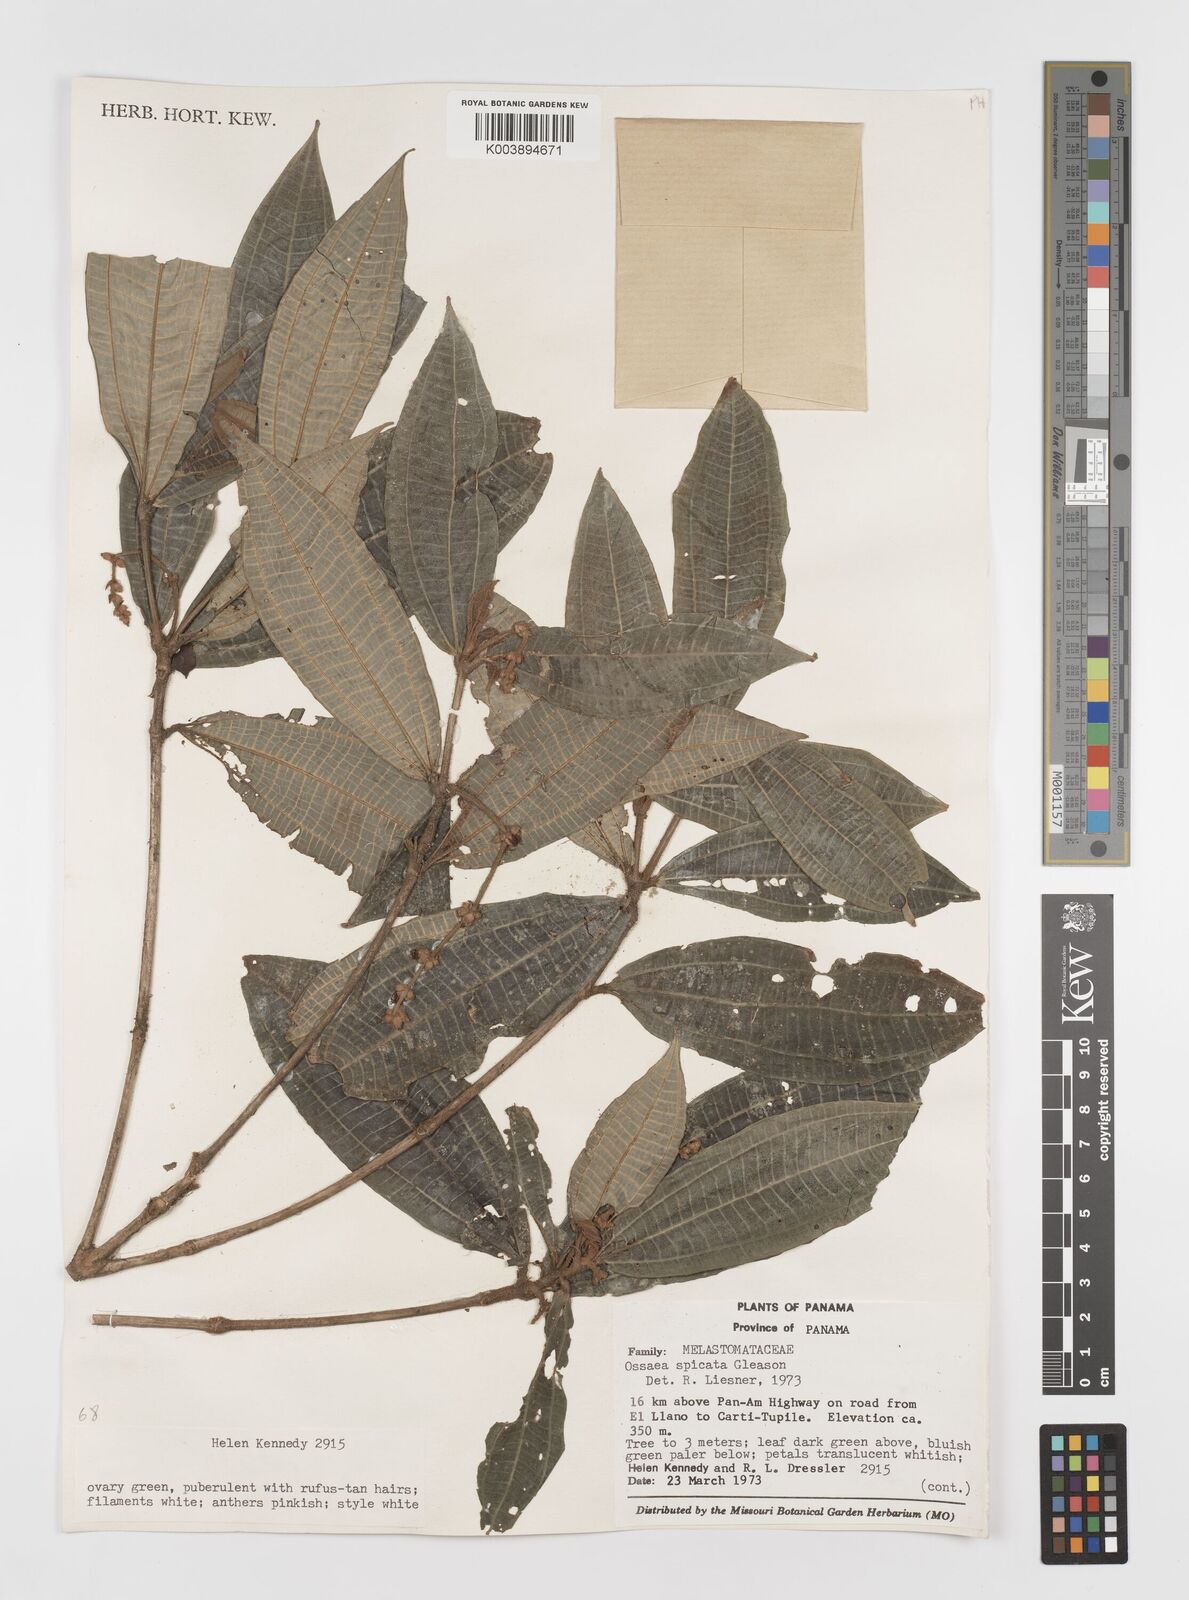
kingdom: Plantae
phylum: Tracheophyta
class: Magnoliopsida
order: Myrtales
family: Melastomataceae
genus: Miconia
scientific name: Miconia spicata
